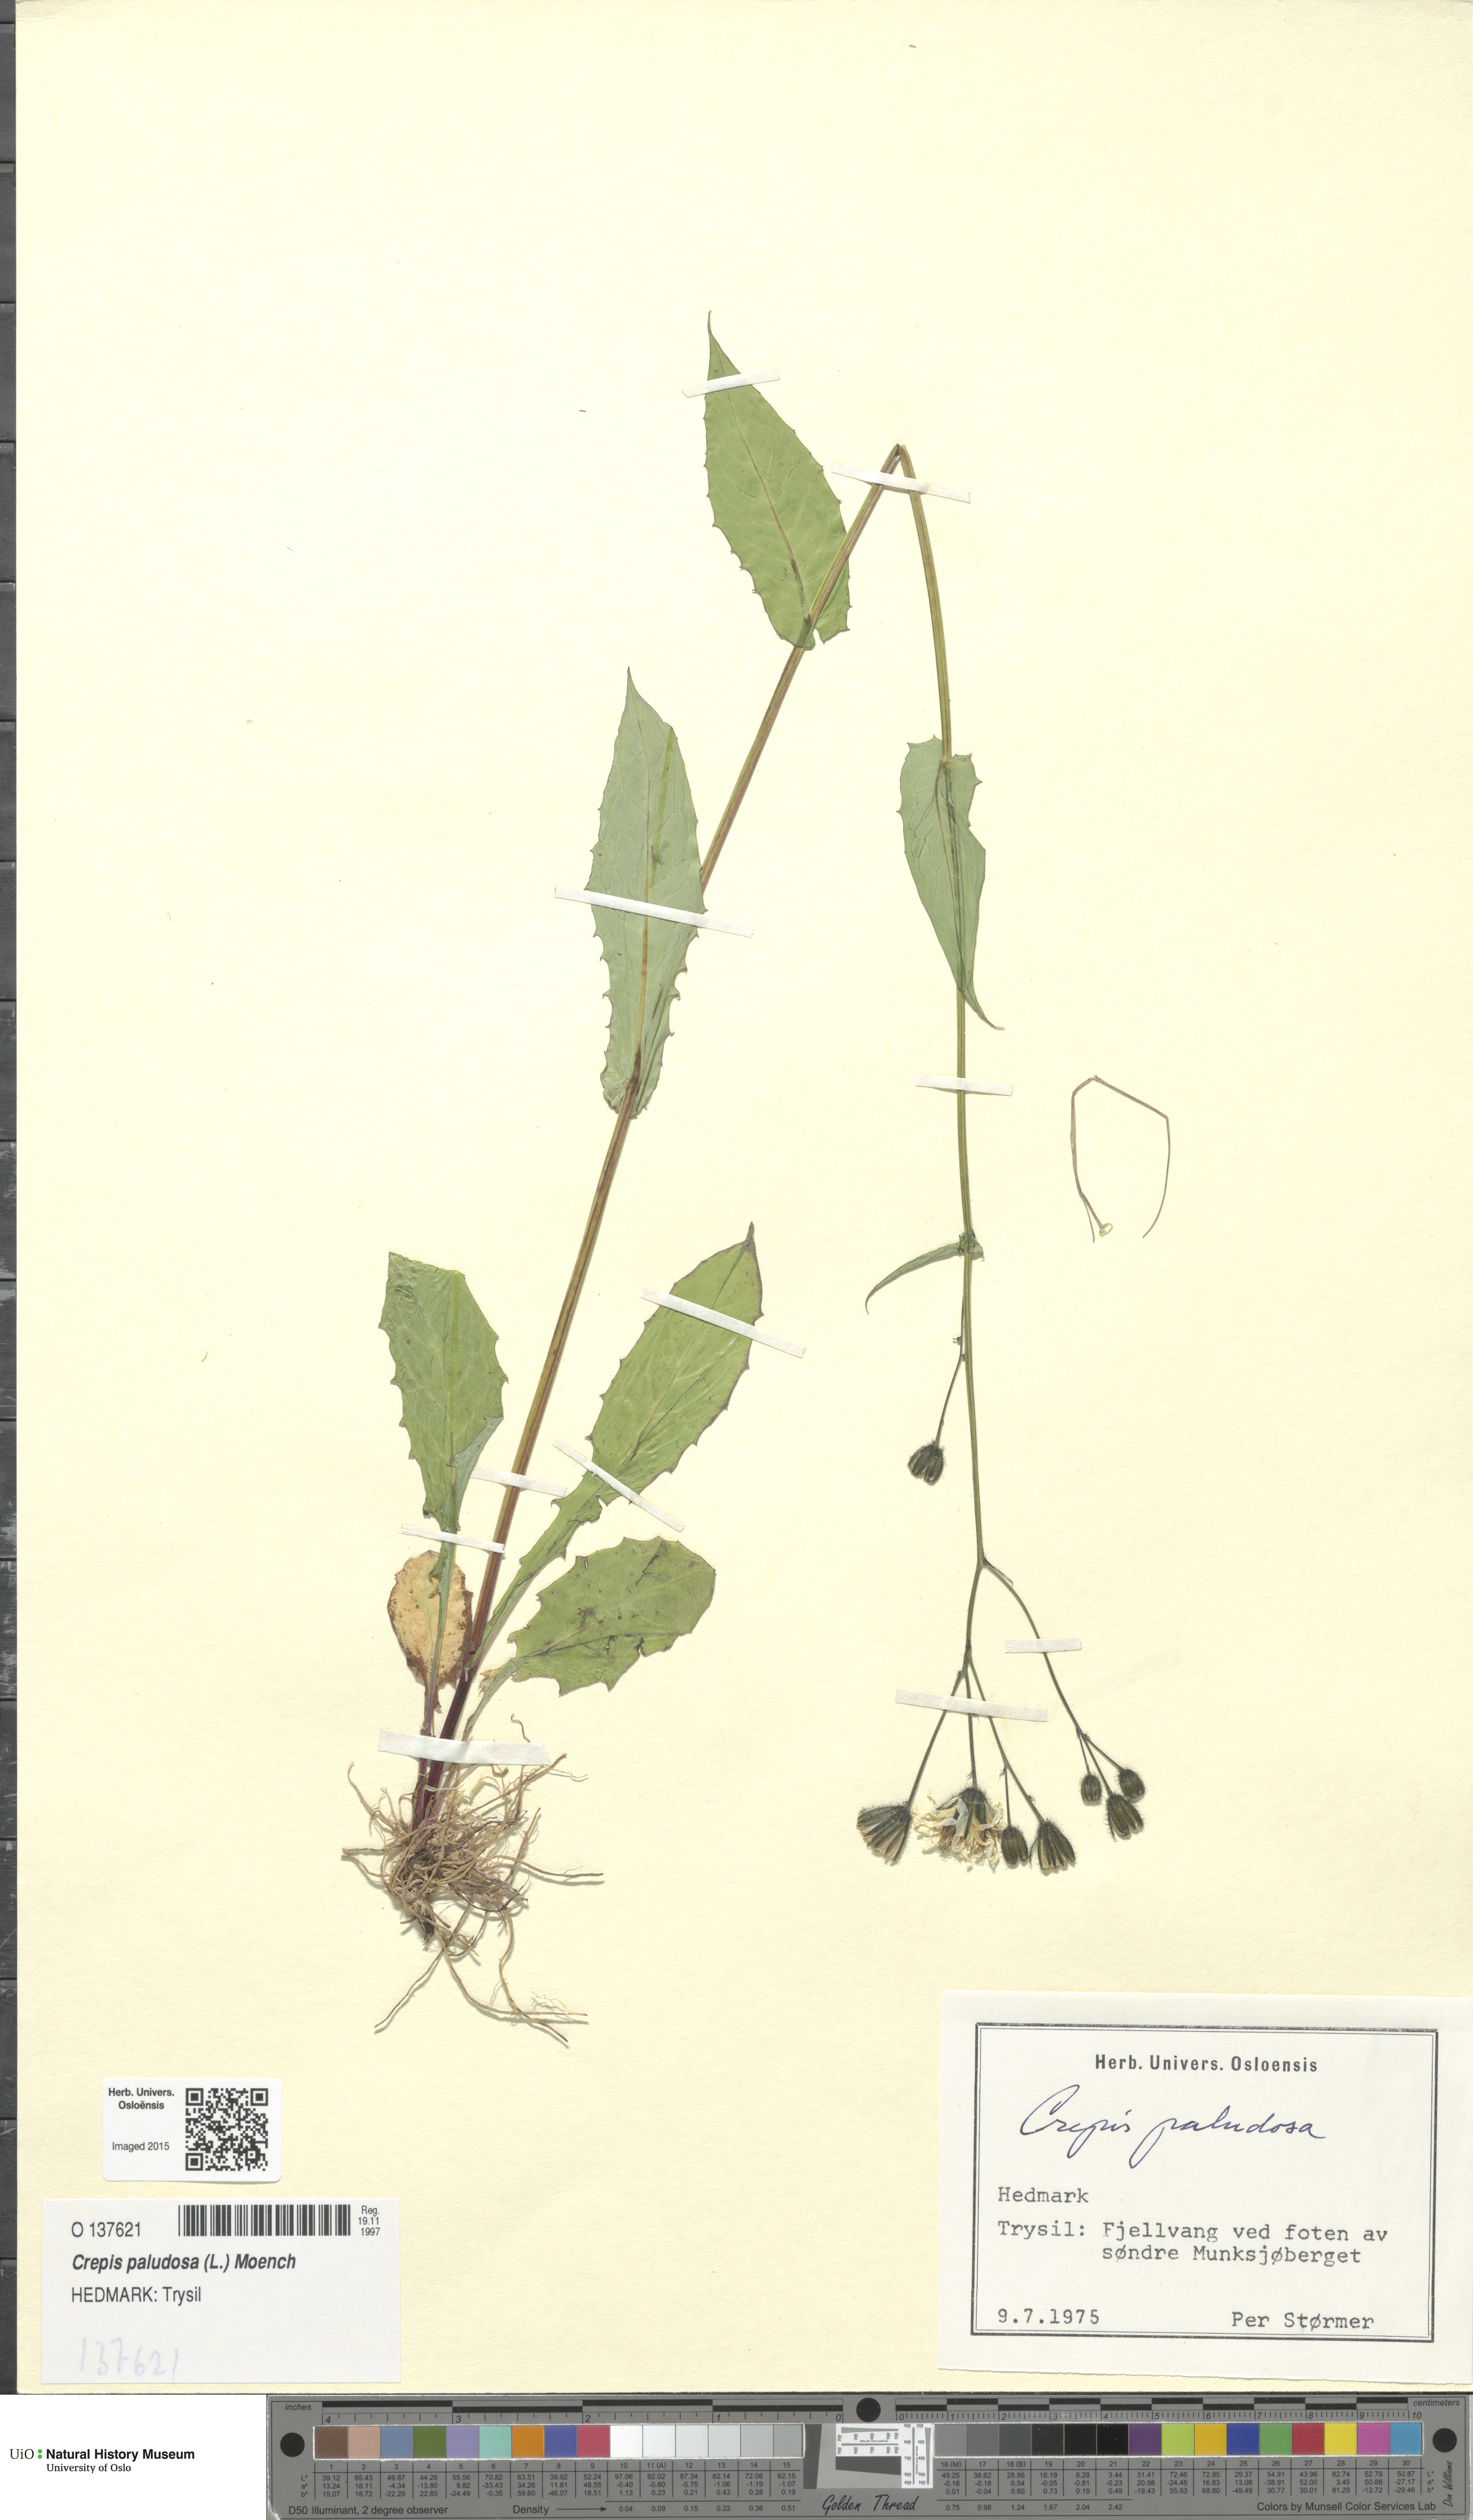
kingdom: Plantae
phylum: Tracheophyta
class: Magnoliopsida
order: Asterales
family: Asteraceae
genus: Crepis
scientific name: Crepis paludosa
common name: Marsh hawk's-beard
